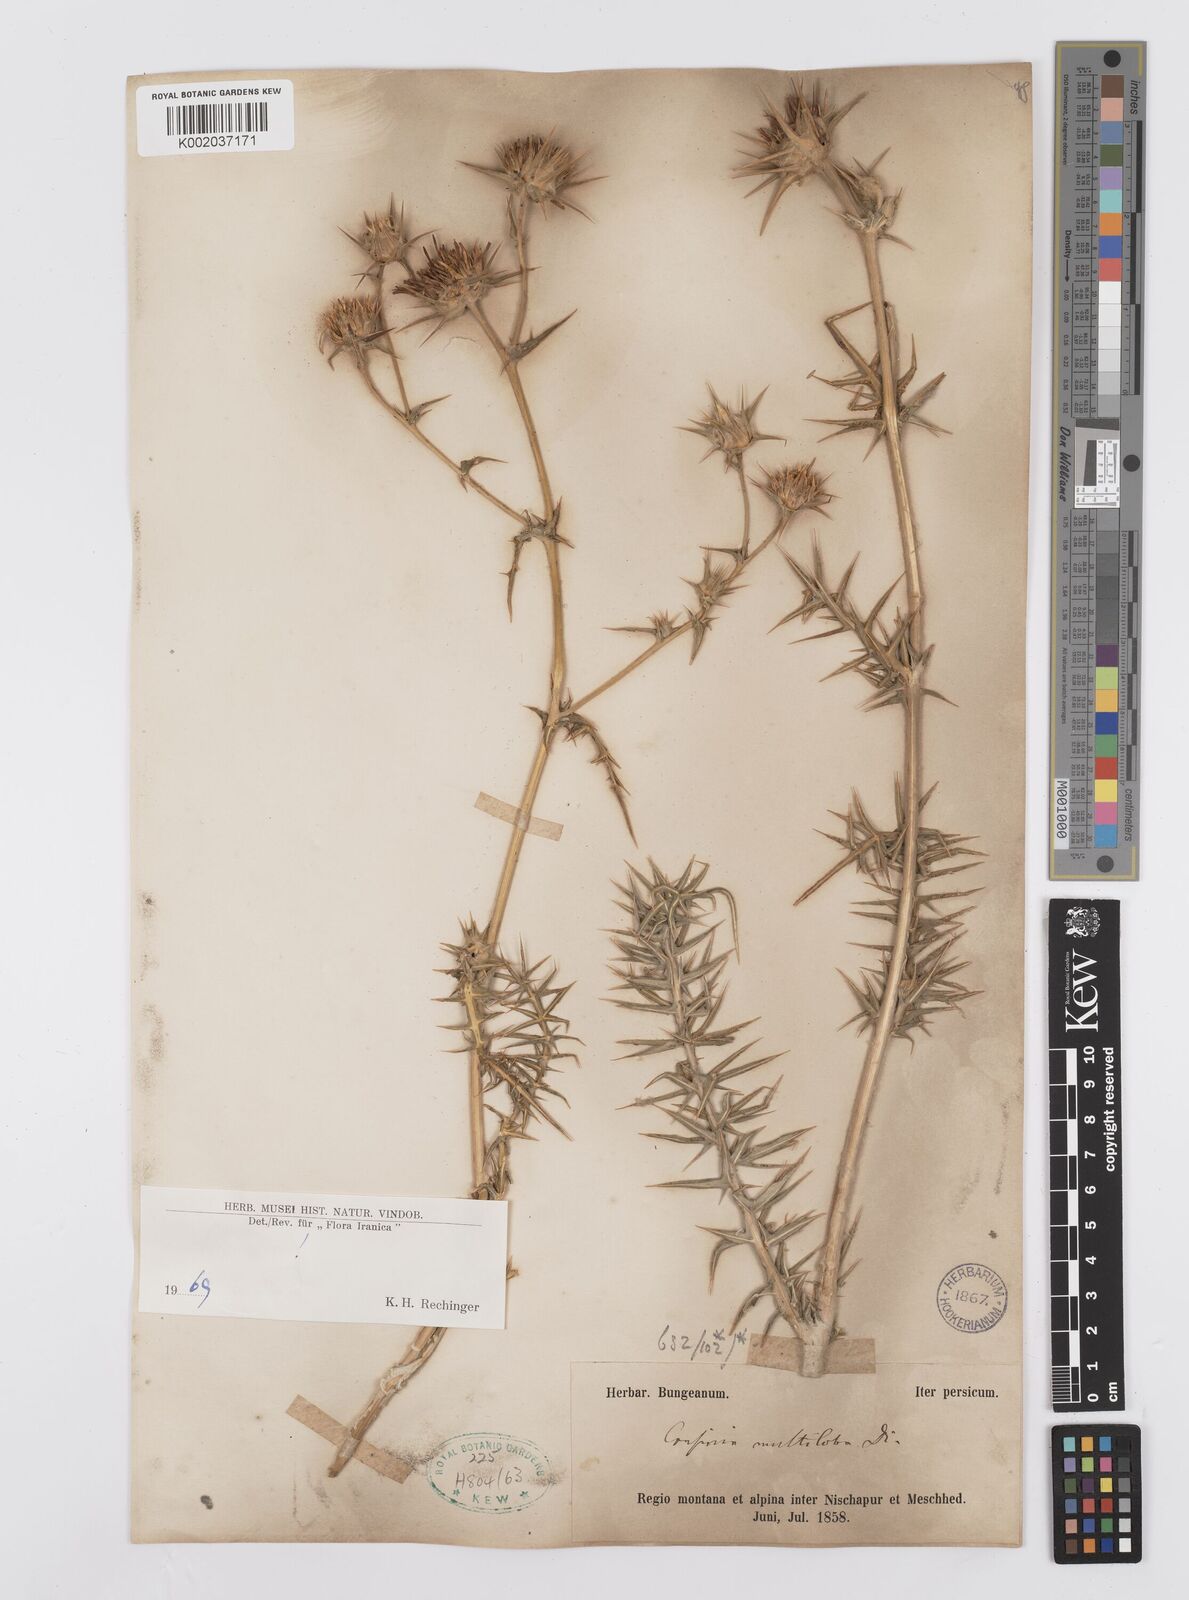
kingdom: Plantae
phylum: Tracheophyta
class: Magnoliopsida
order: Asterales
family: Asteraceae
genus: Cousinia
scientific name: Cousinia multiloba
